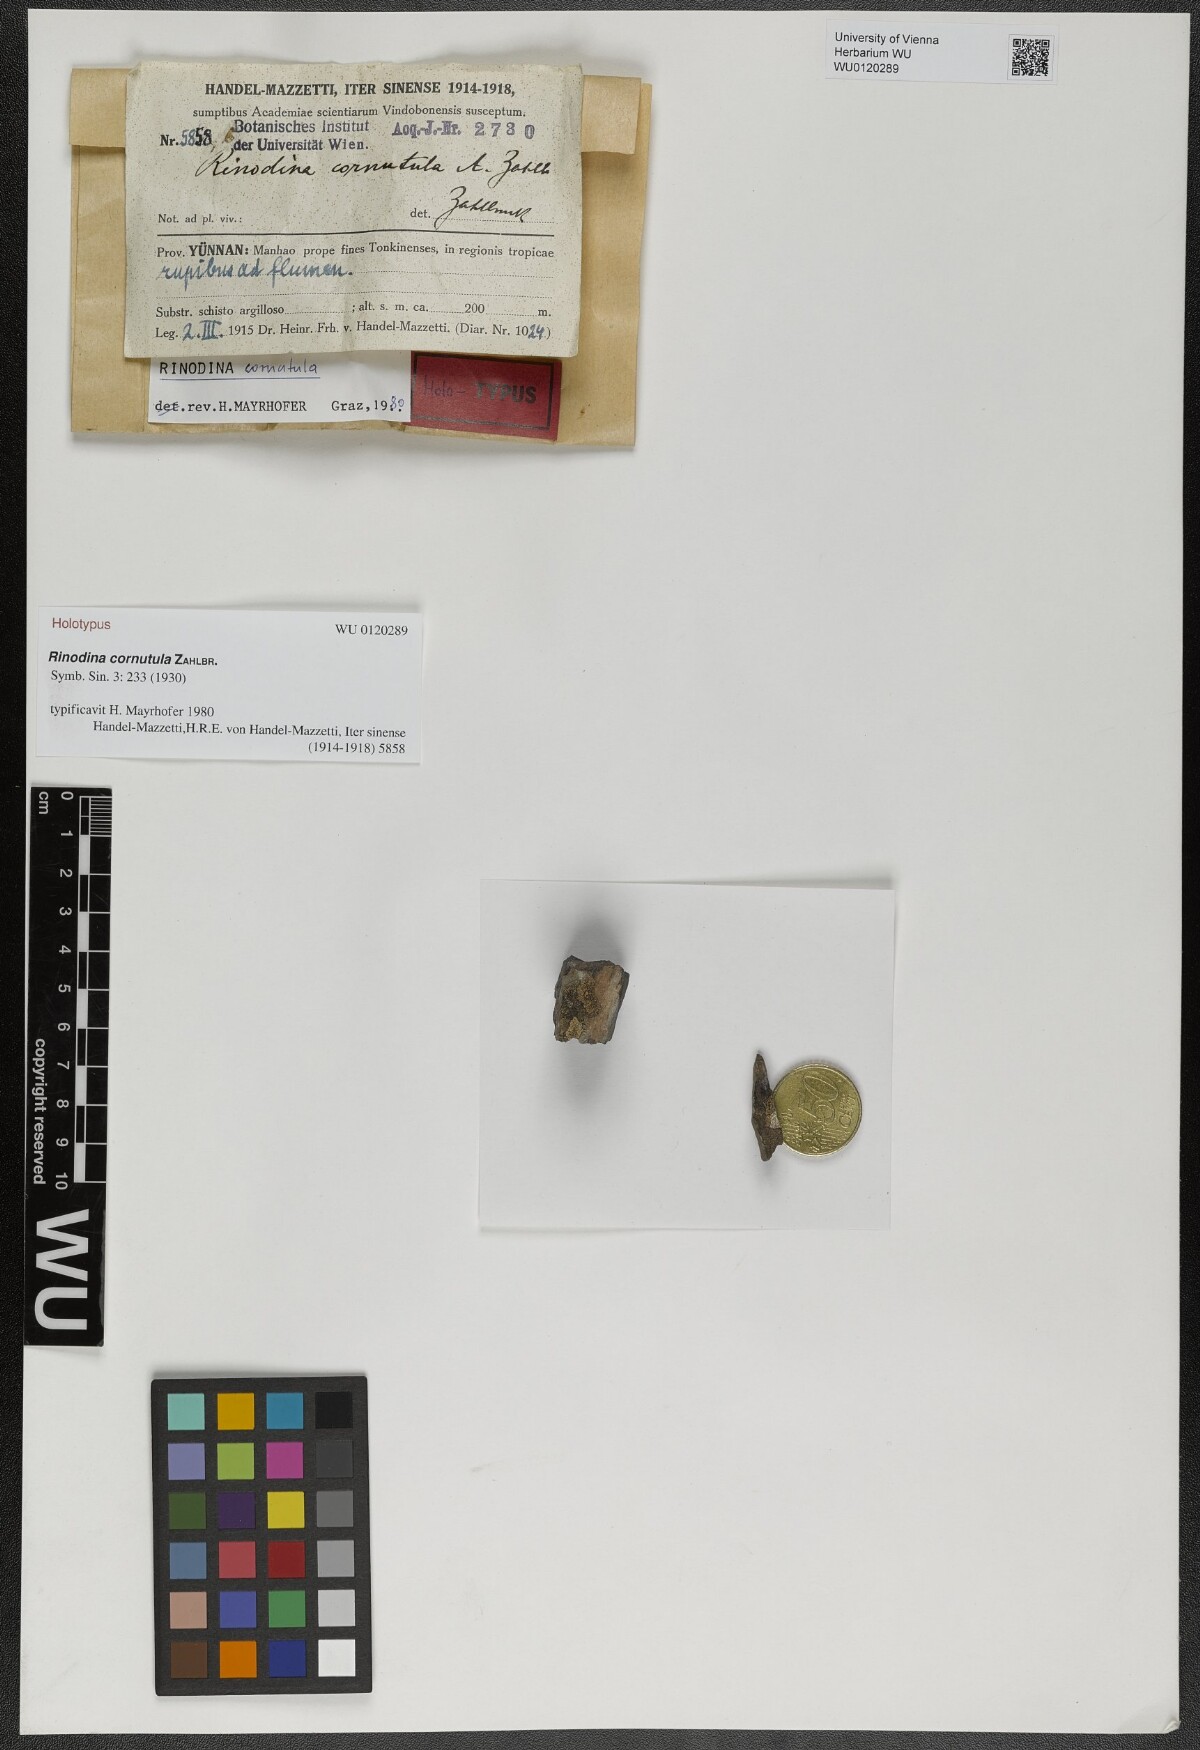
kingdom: Fungi
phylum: Ascomycota
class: Lecanoromycetes
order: Caliciales
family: Physciaceae
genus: Rinodina
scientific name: Rinodina cornutula
